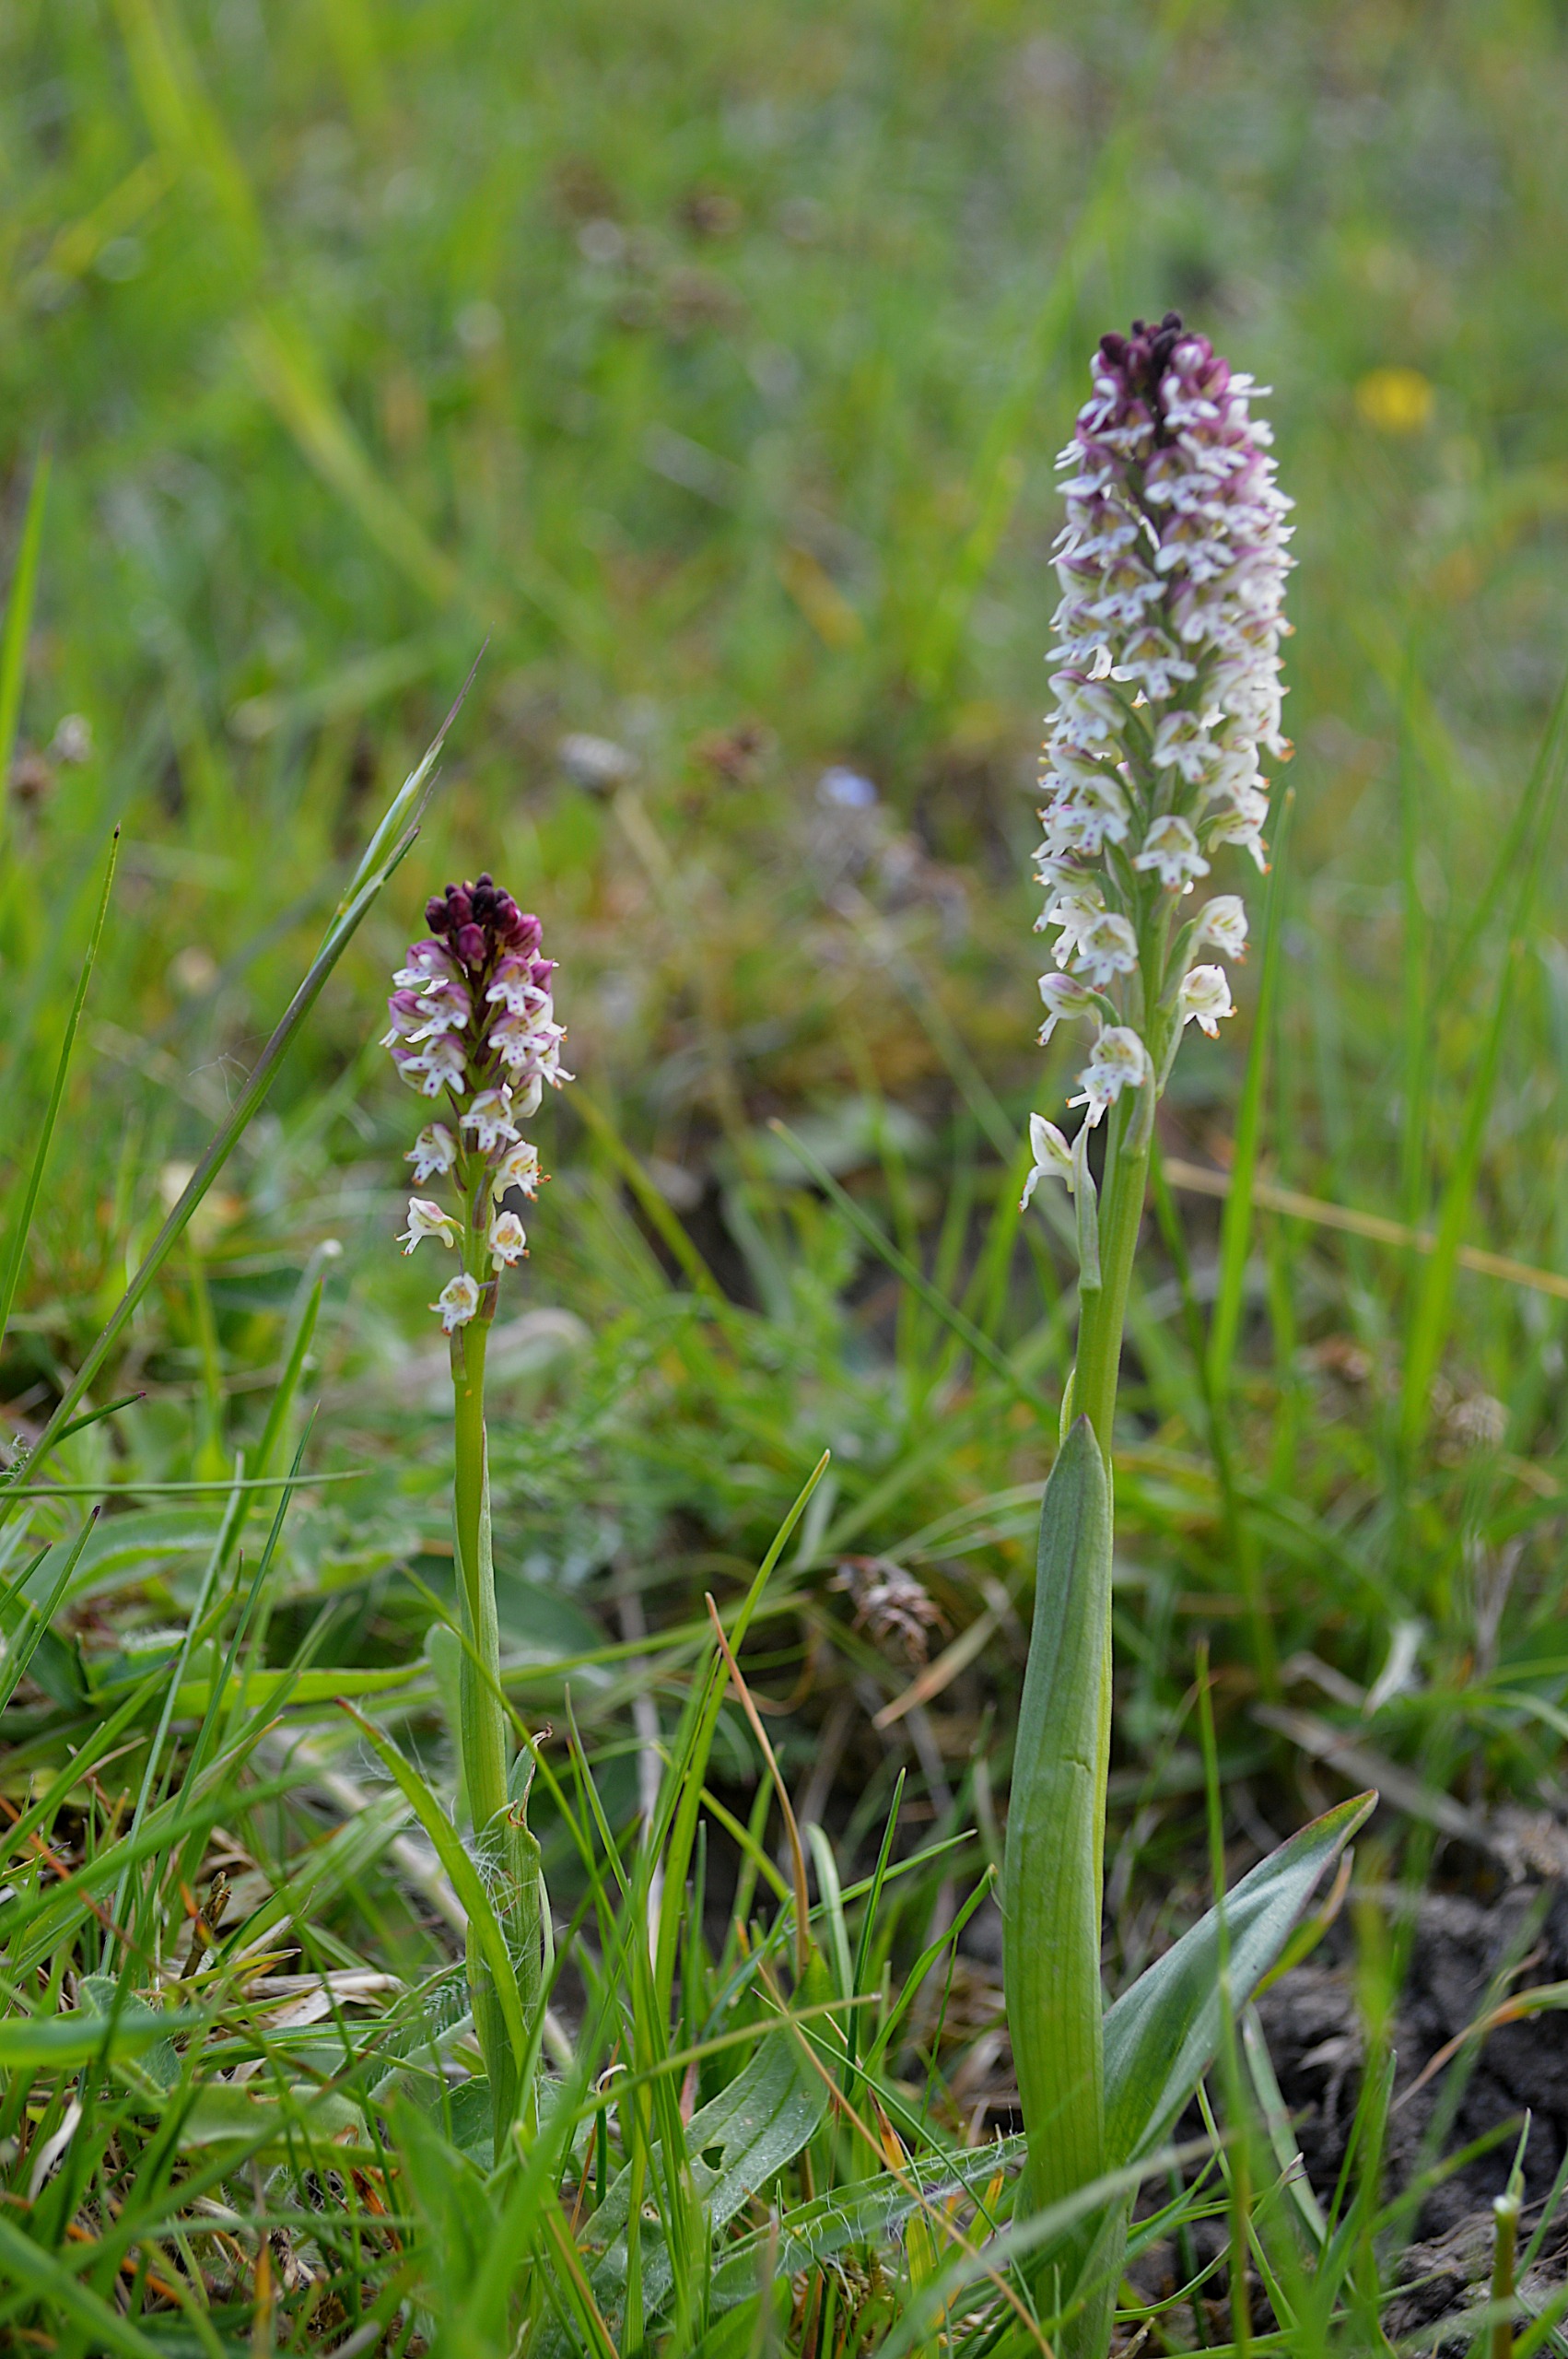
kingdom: Plantae
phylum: Tracheophyta
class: Liliopsida
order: Asparagales
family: Orchidaceae
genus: Neotinea
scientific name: Neotinea ustulata
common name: Bakkegøgeurt
